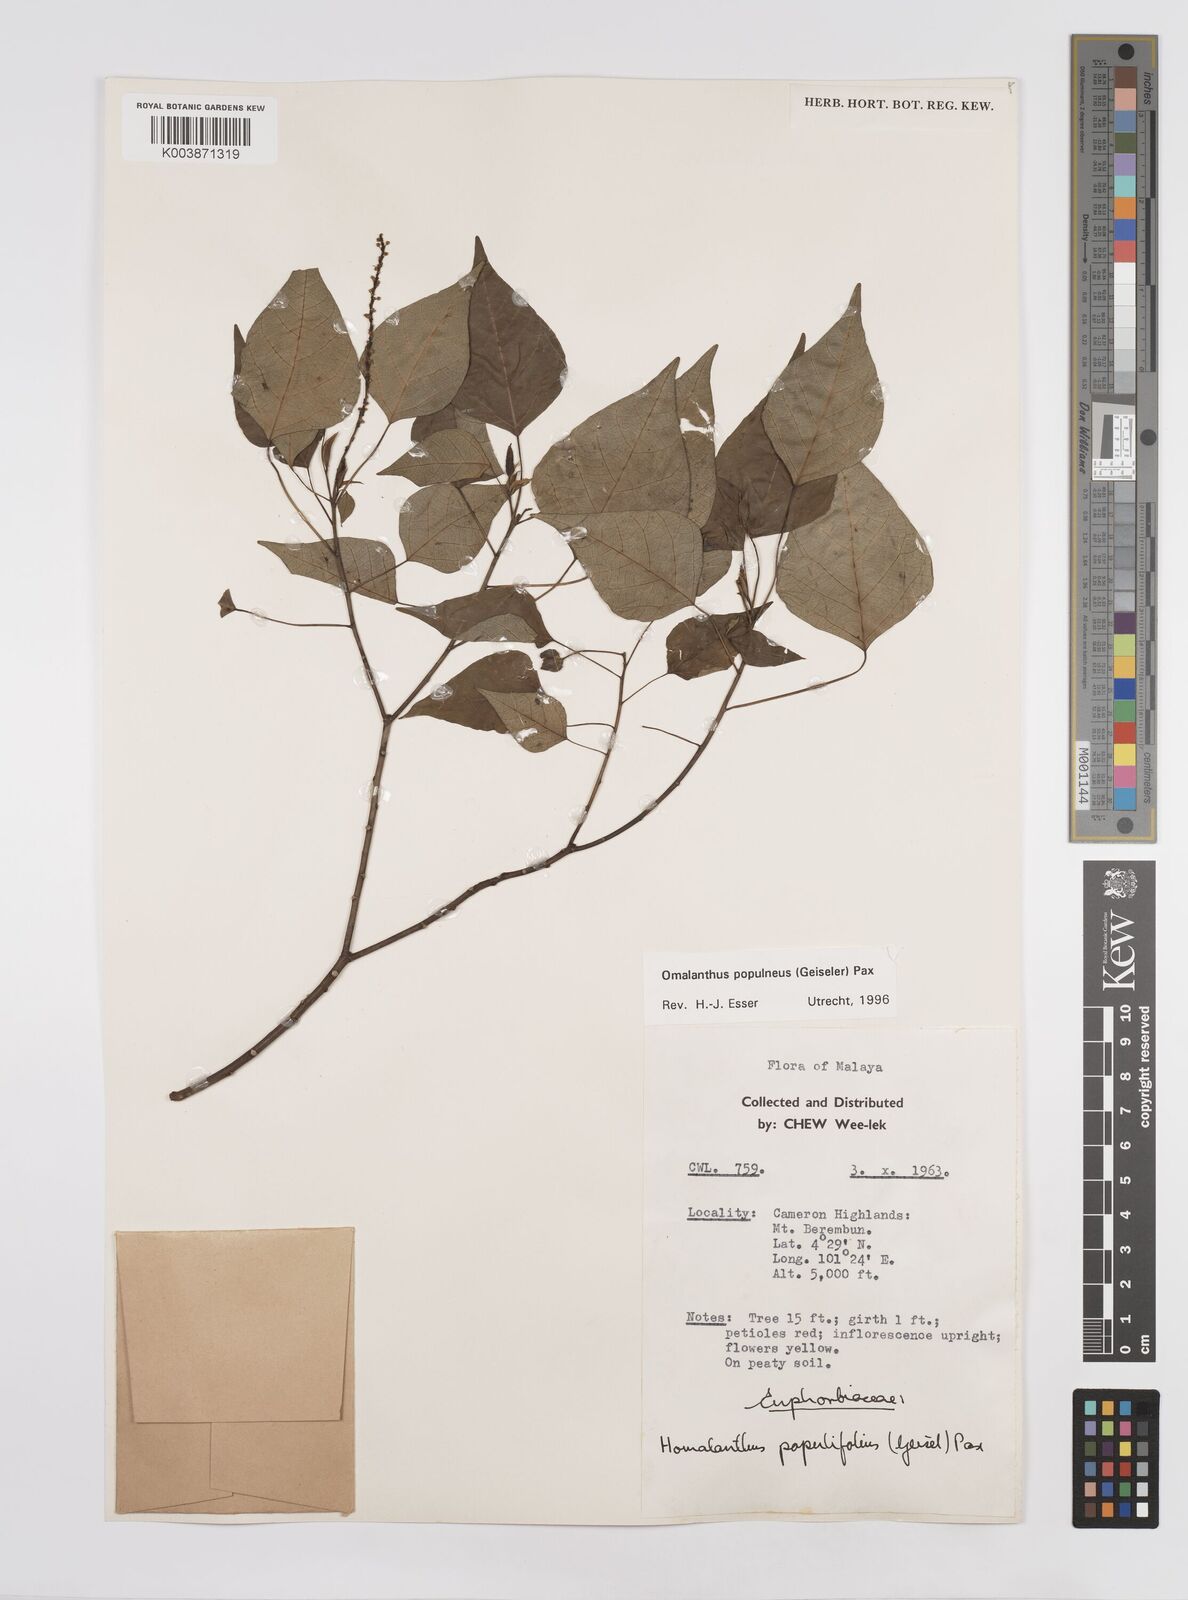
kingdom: Plantae
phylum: Tracheophyta
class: Magnoliopsida
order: Malpighiales
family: Euphorbiaceae
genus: Homalanthus
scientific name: Homalanthus populneus
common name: Spurge
